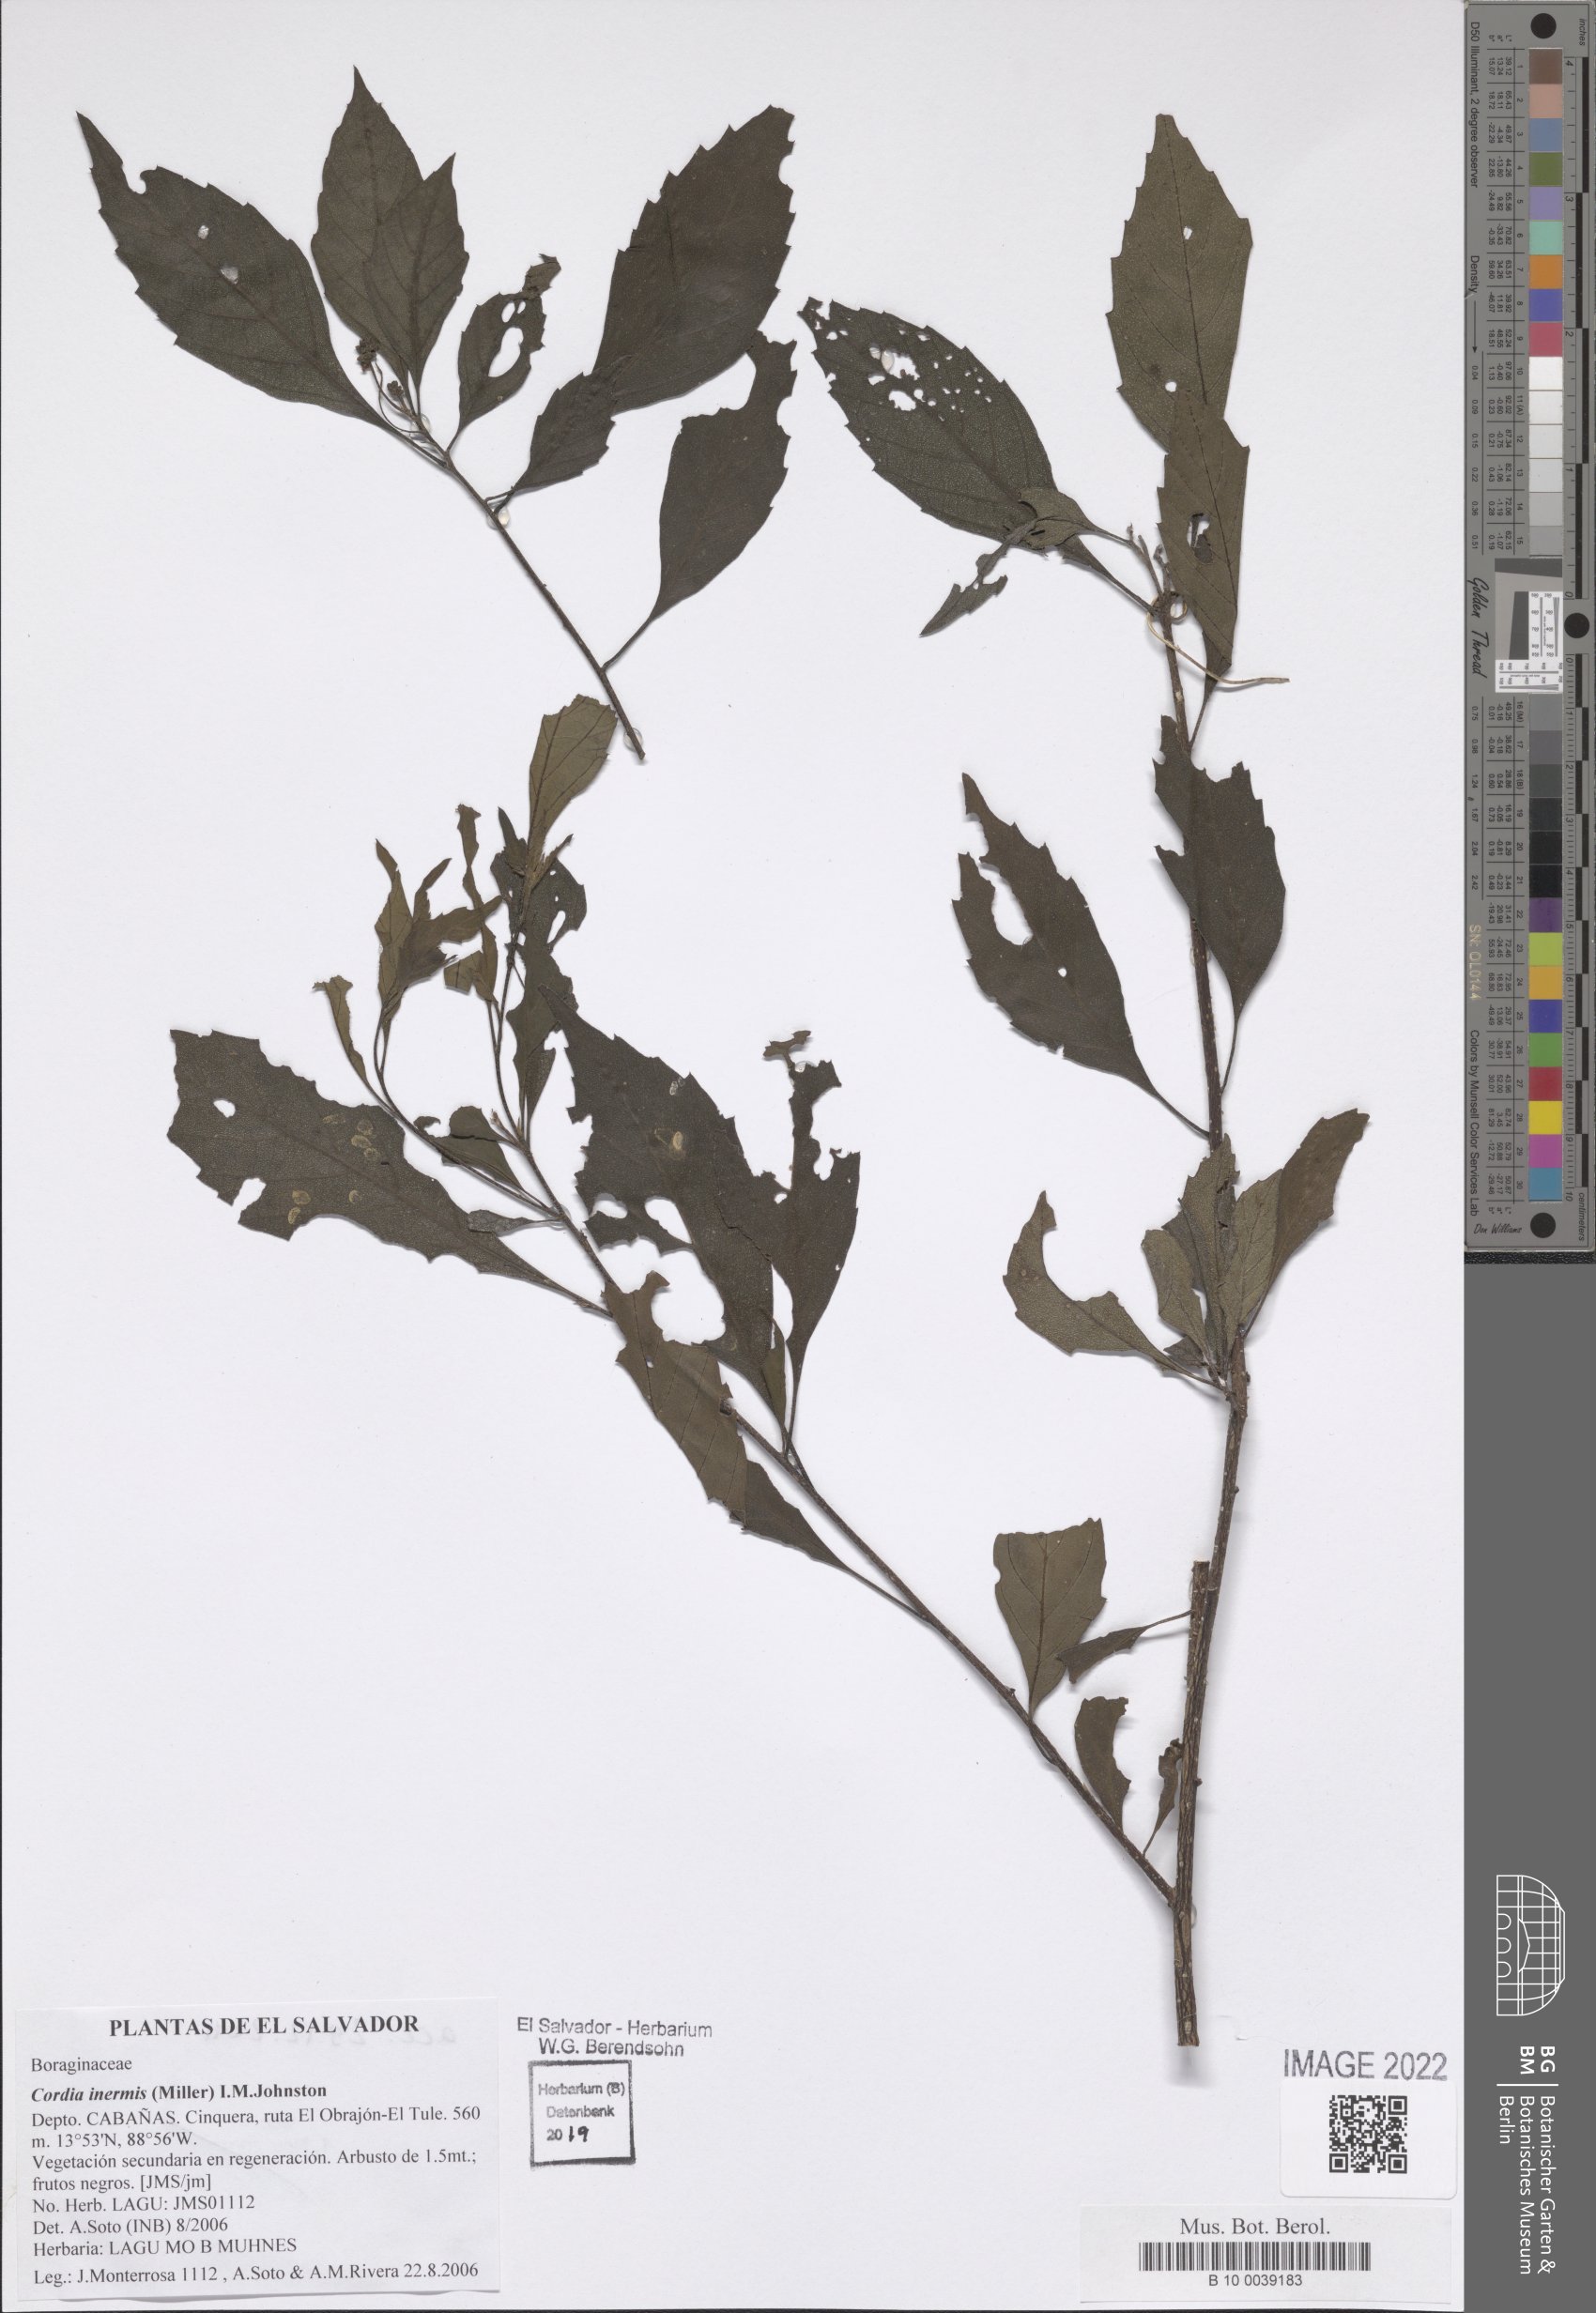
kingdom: Plantae
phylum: Tracheophyta
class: Magnoliopsida
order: Boraginales
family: Cordiaceae
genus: Varronia
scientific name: Varronia inermis
